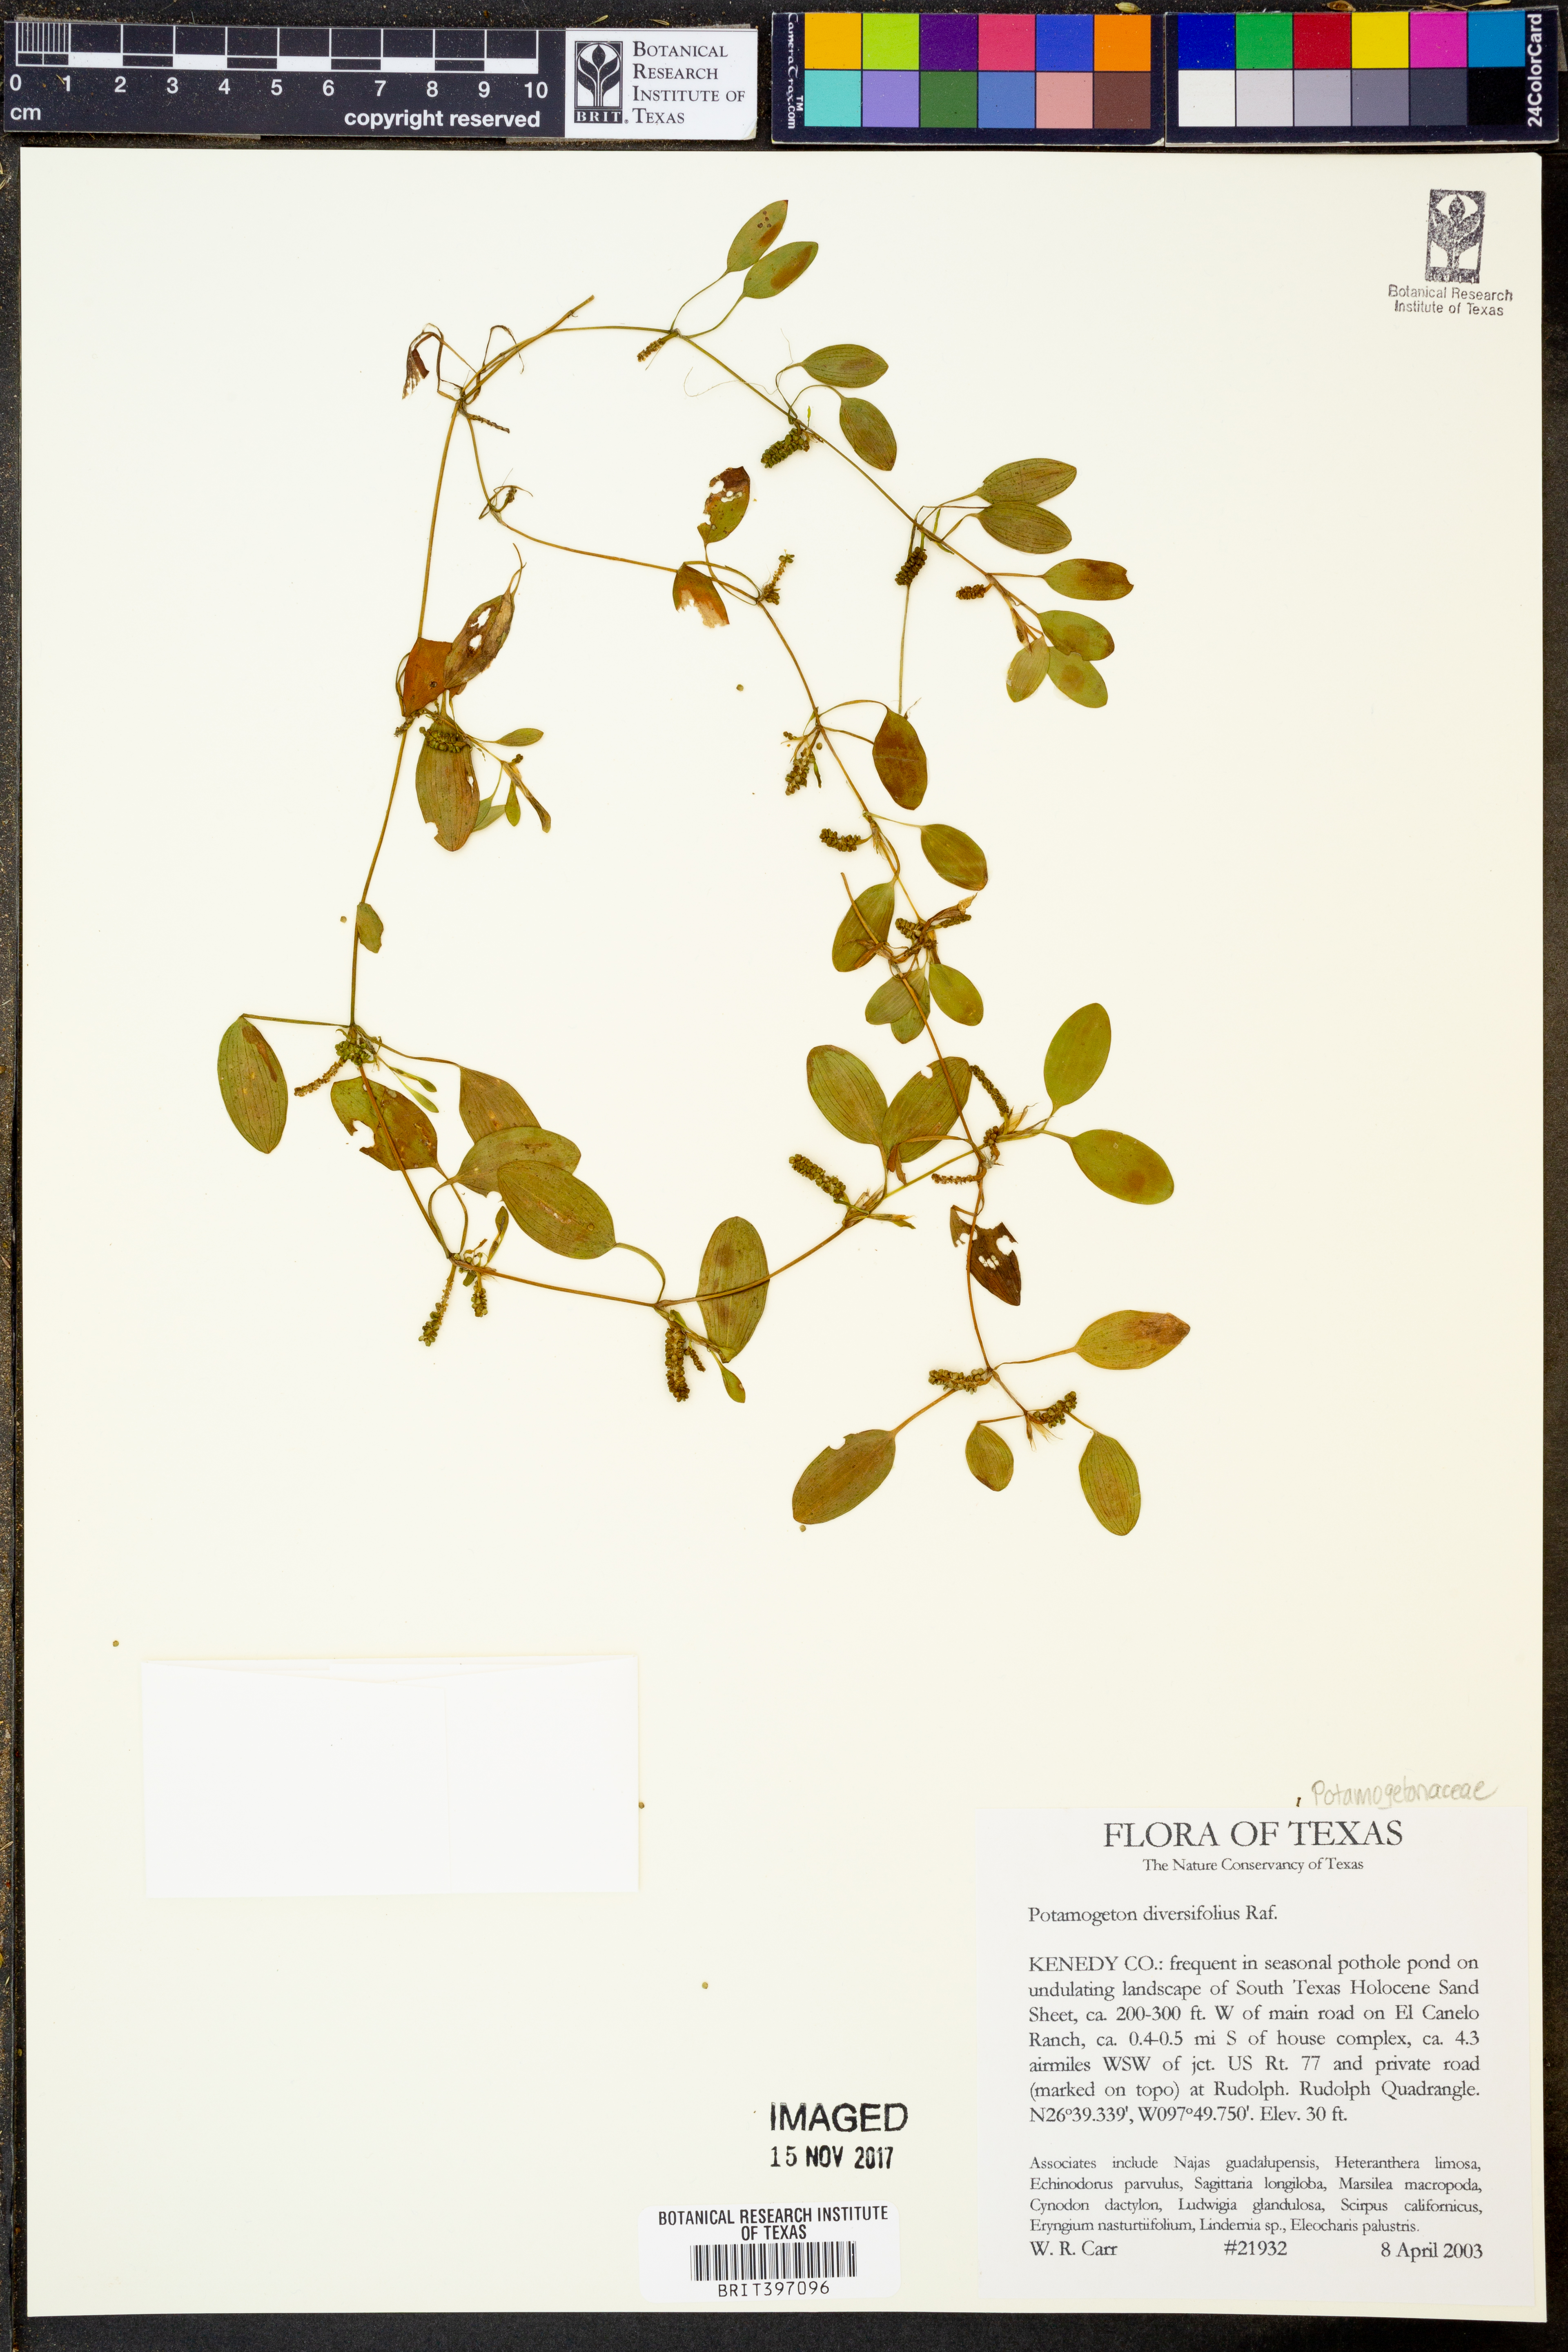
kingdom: Plantae
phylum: Tracheophyta
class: Liliopsida
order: Alismatales
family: Potamogetonaceae
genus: Potamogeton
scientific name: Potamogeton diversifolius
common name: Water-thread pondweed
